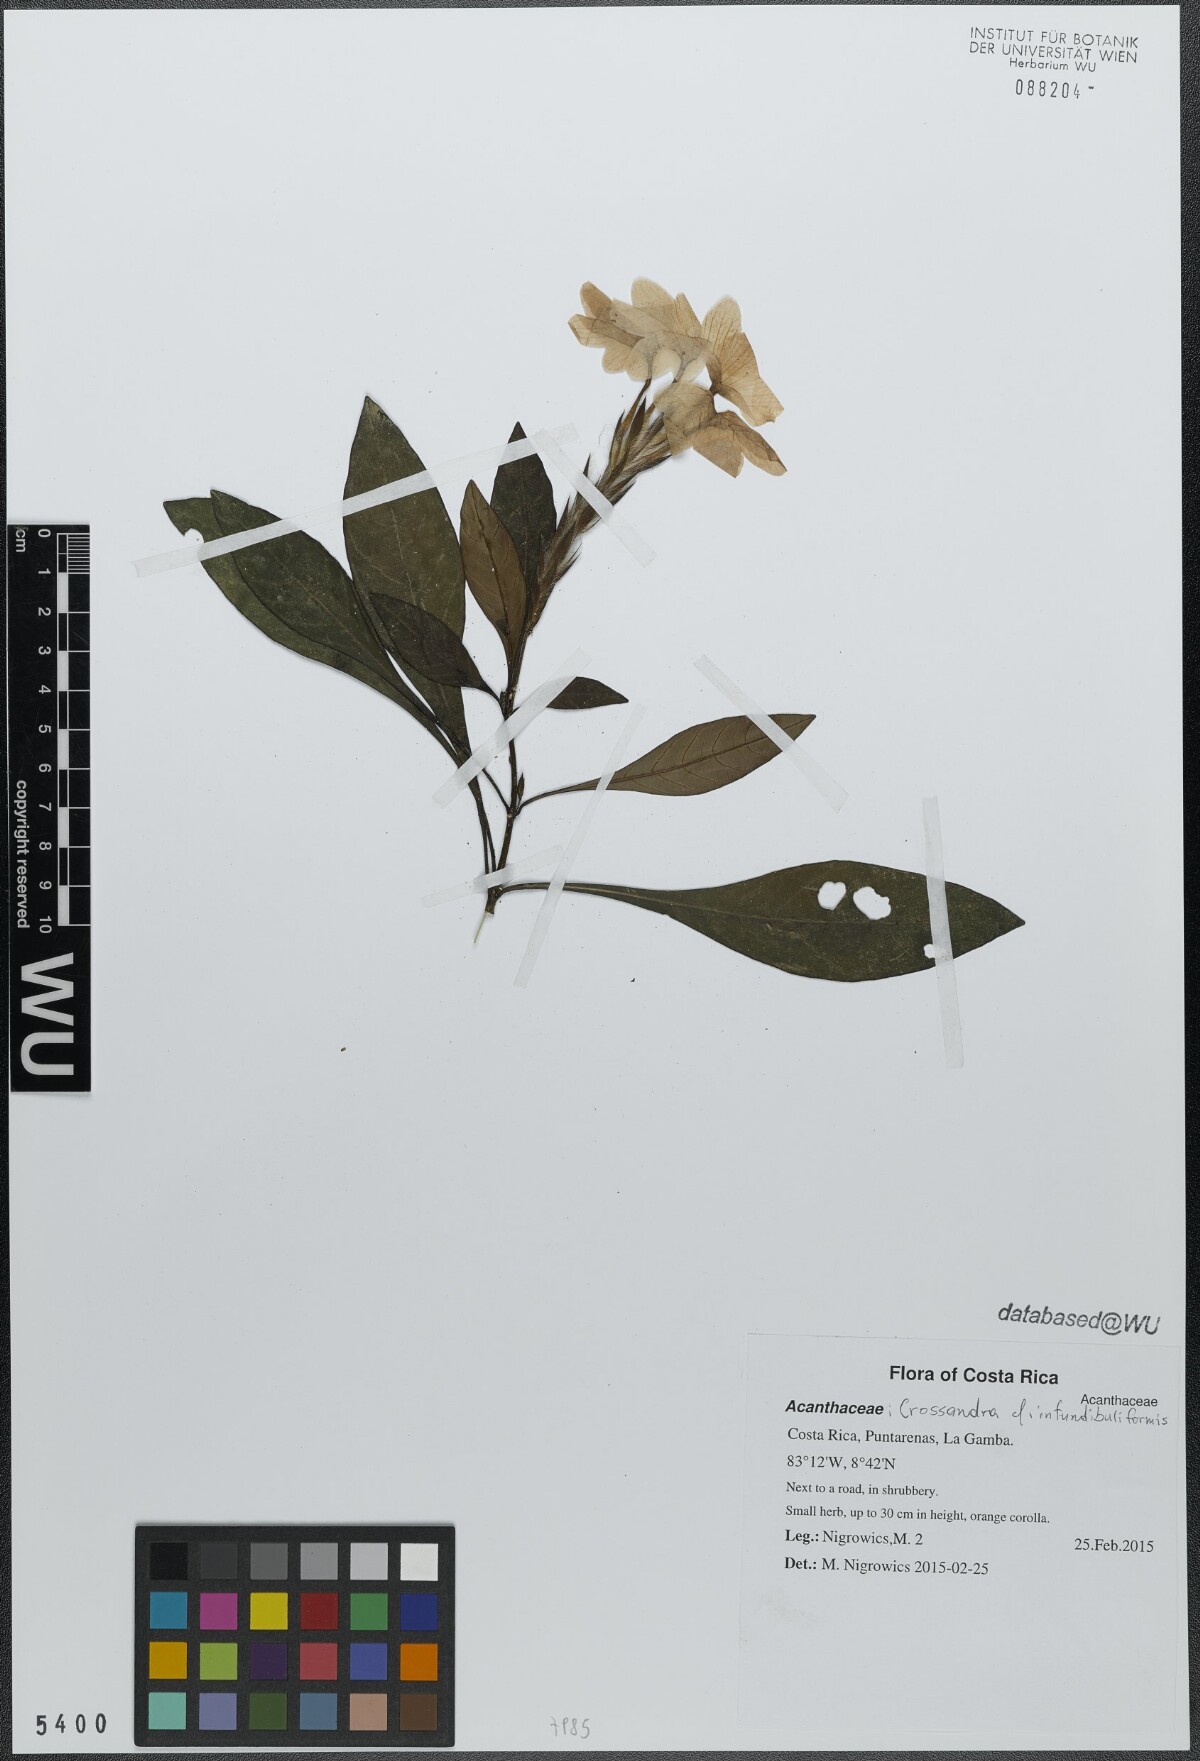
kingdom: Plantae
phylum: Tracheophyta
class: Magnoliopsida
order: Lamiales
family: Acanthaceae
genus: Crossandra
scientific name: Crossandra infundibuliformis
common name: Firecracker-flower
